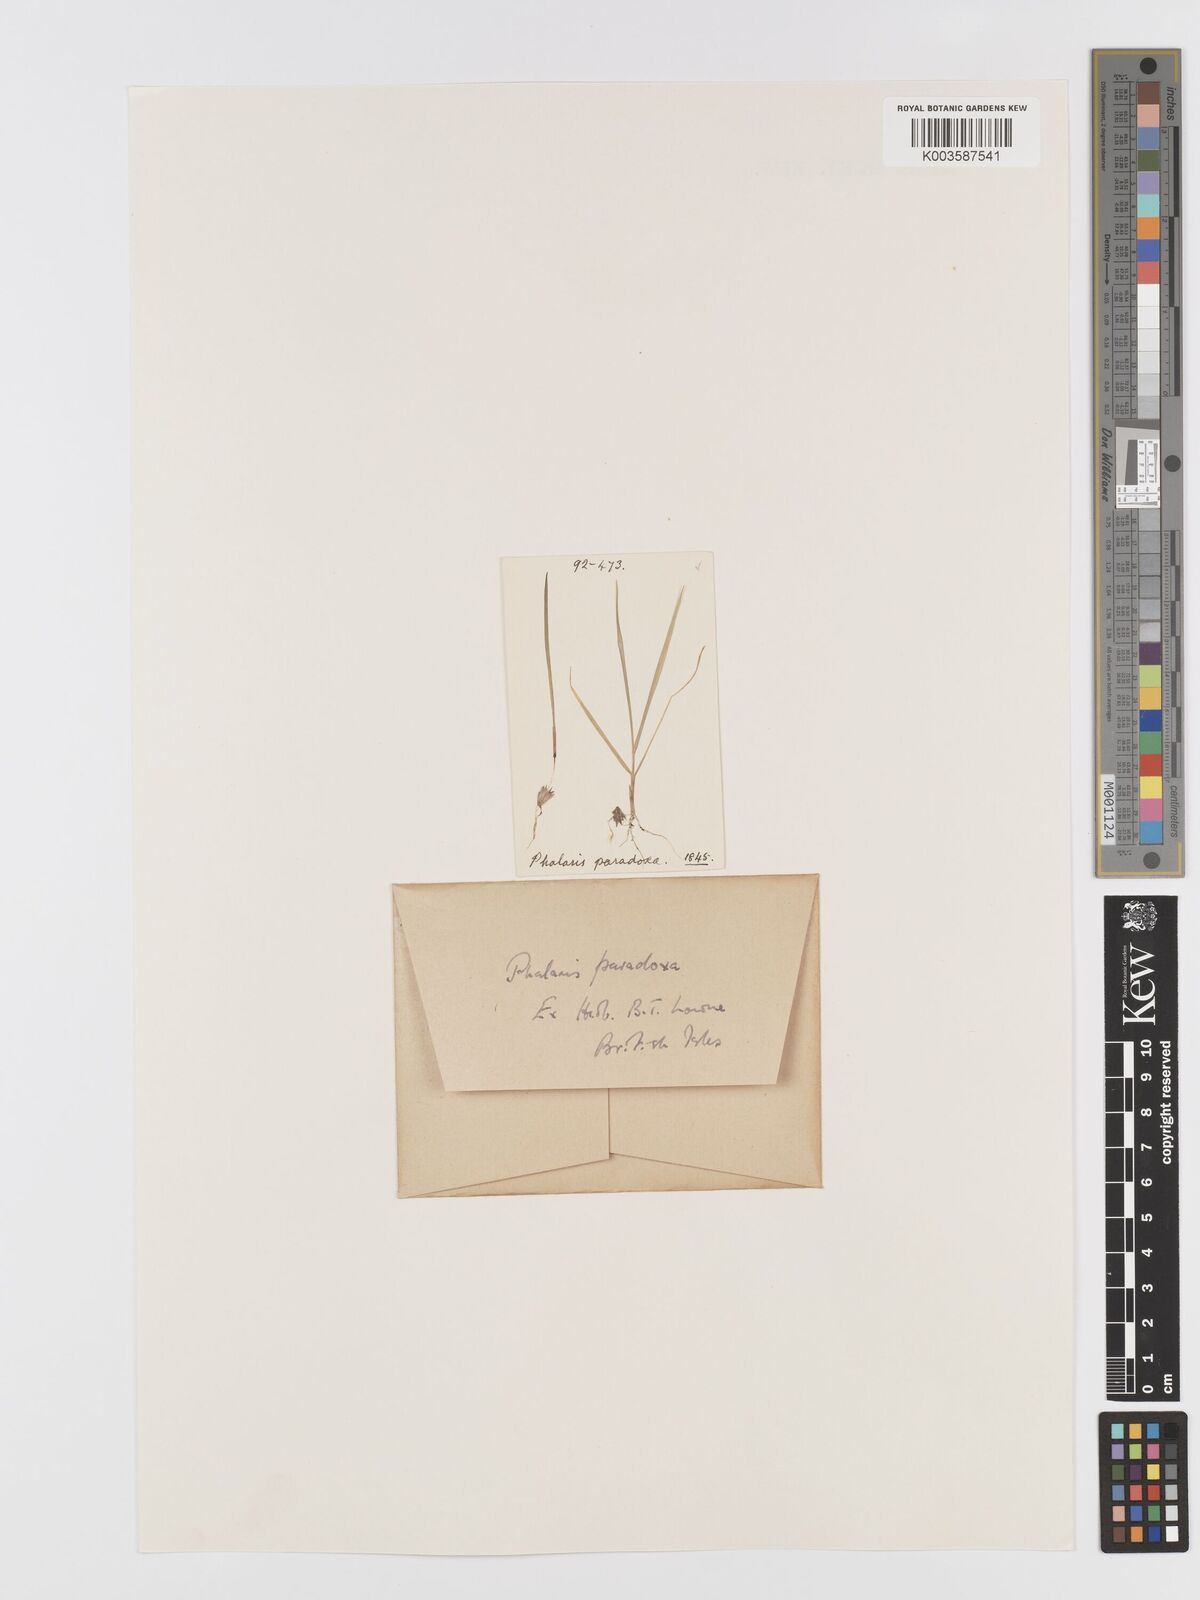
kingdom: Plantae
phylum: Tracheophyta
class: Liliopsida
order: Poales
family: Poaceae
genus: Phalaris
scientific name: Phalaris paradoxa
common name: Awned canary-grass
